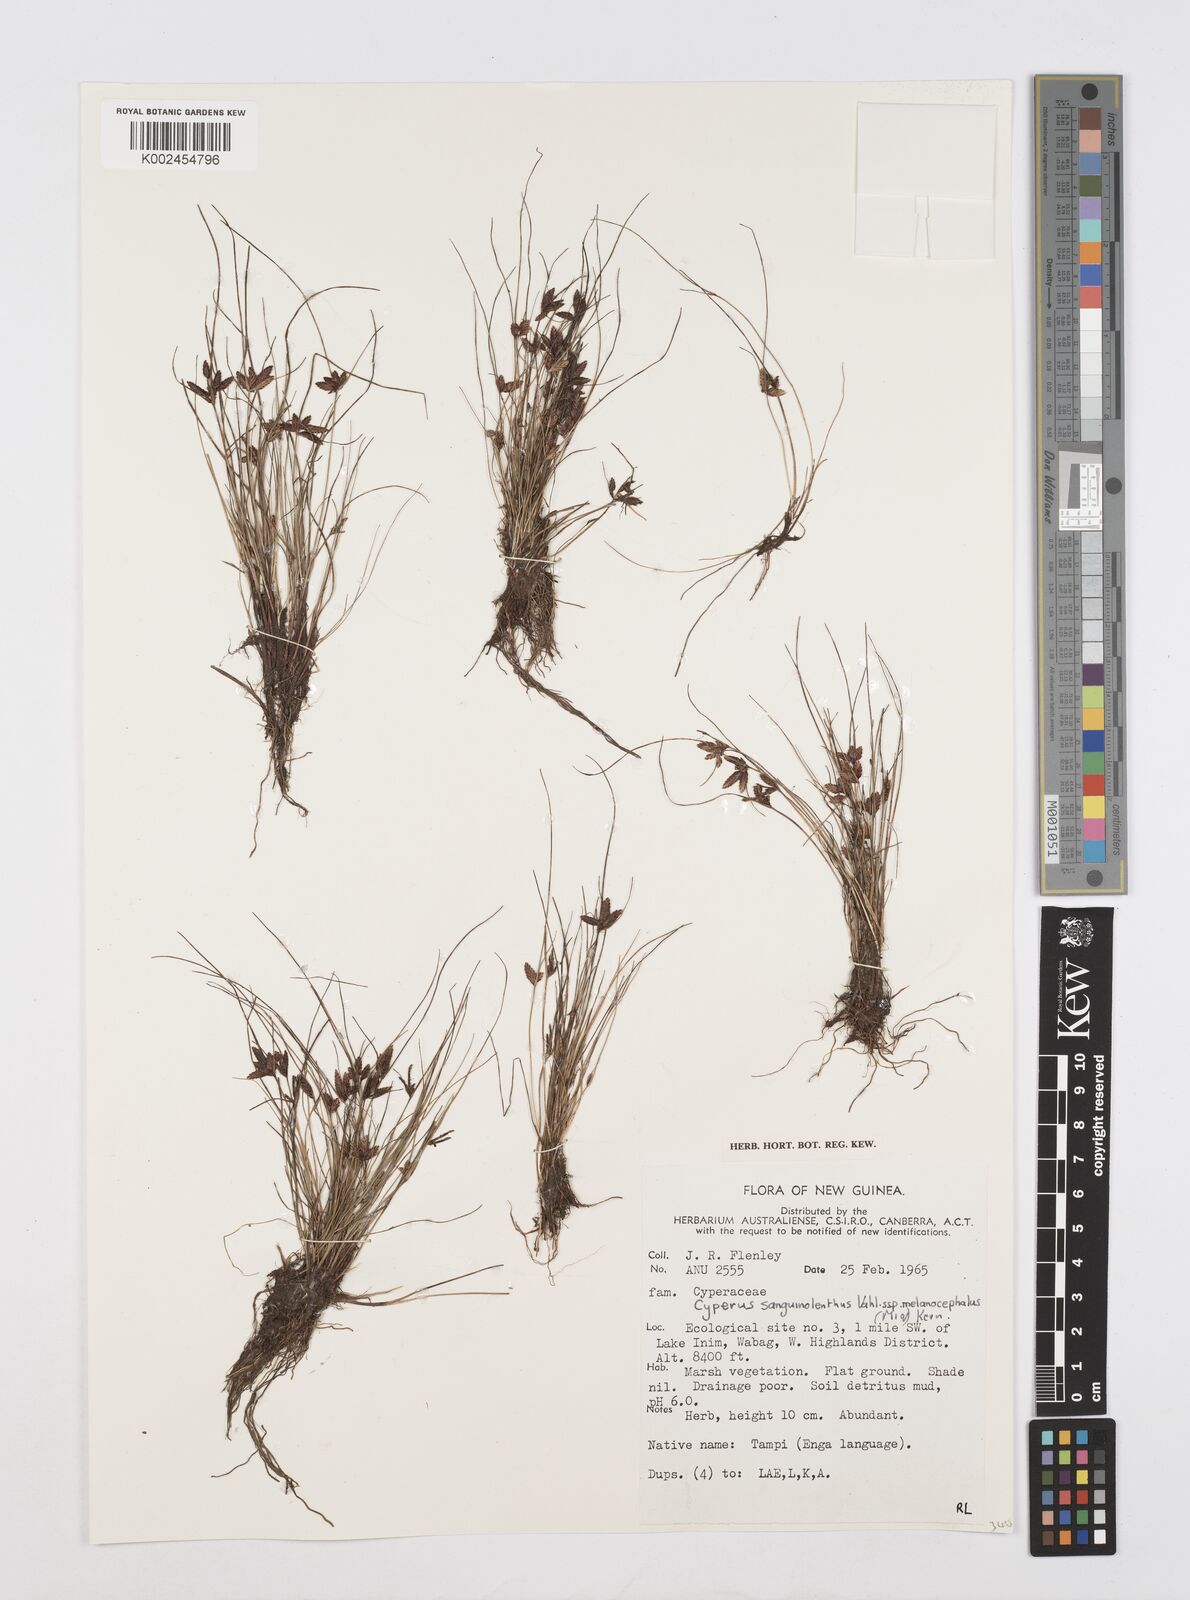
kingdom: Plantae
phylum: Tracheophyta
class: Liliopsida
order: Poales
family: Cyperaceae
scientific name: Cyperaceae
